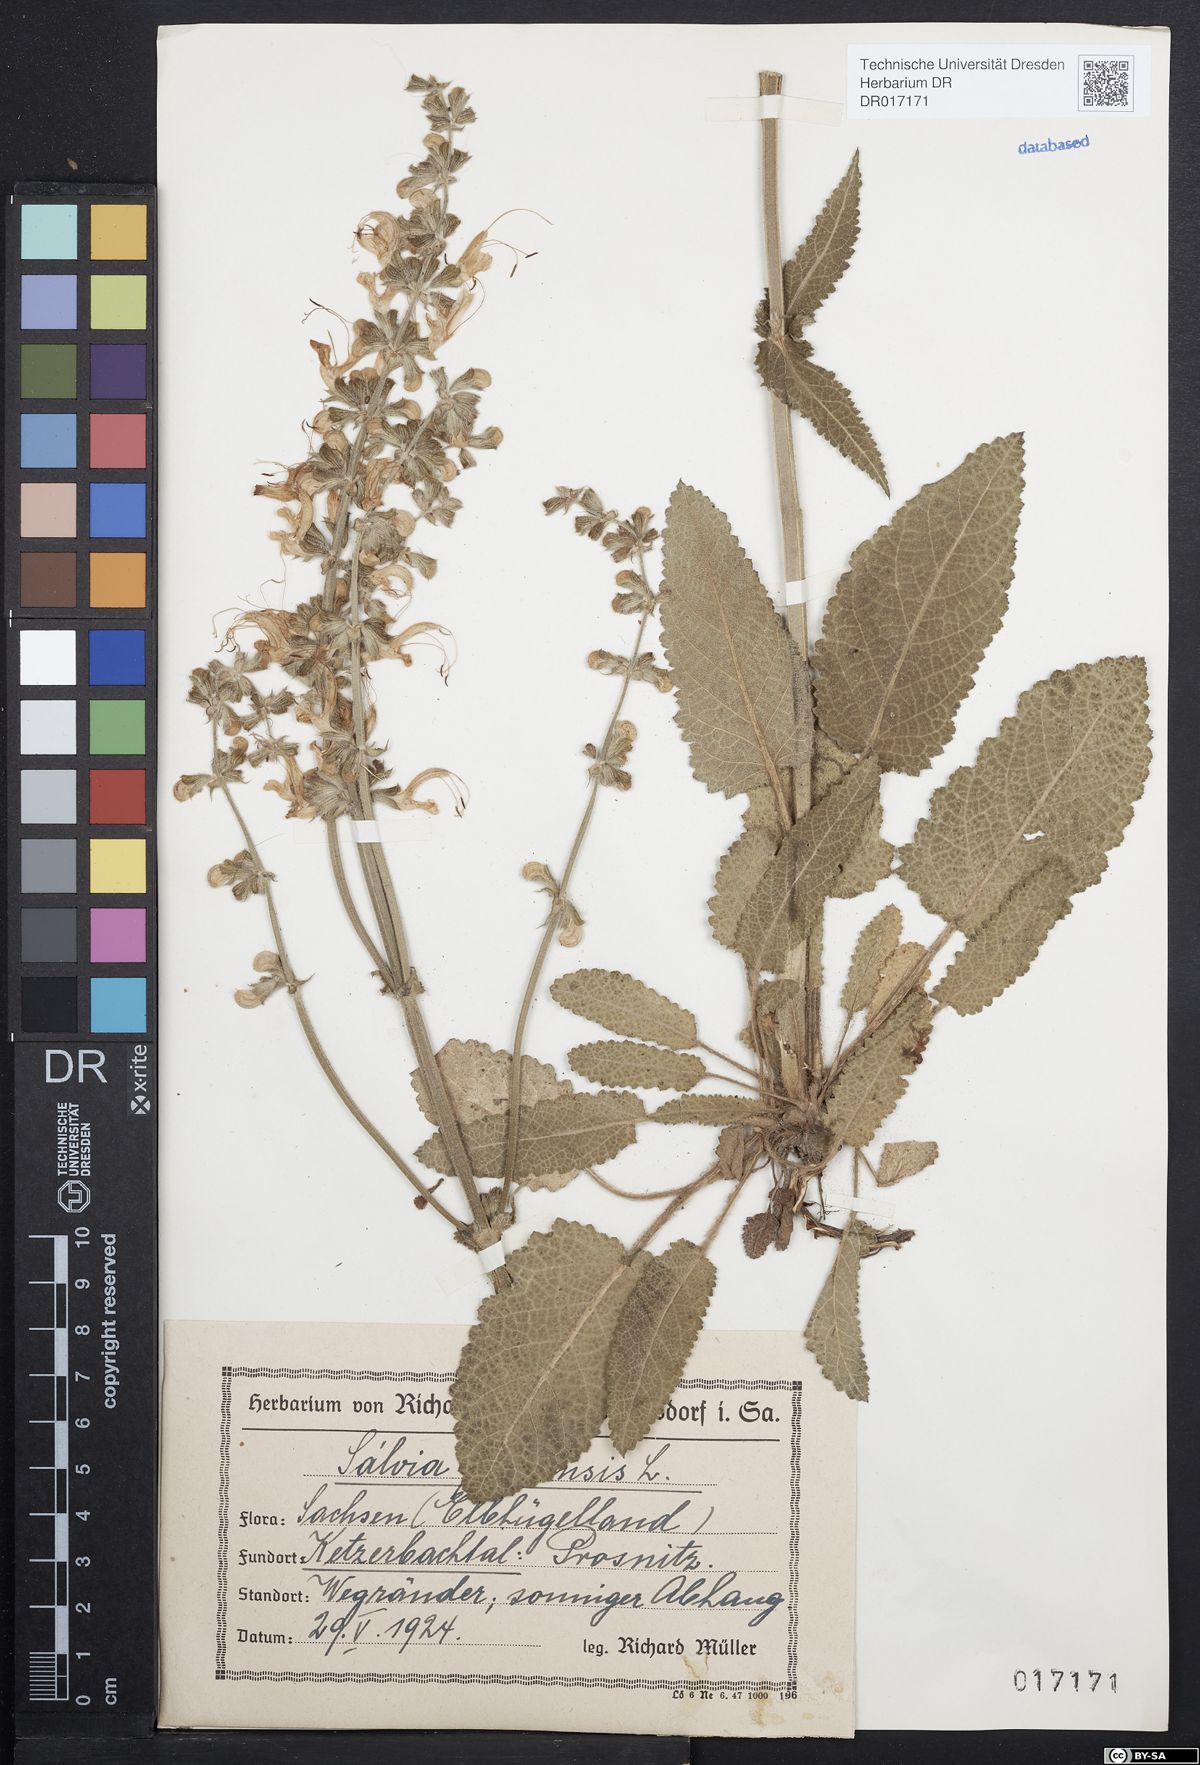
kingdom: Plantae
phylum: Tracheophyta
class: Magnoliopsida
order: Lamiales
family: Lamiaceae
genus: Salvia
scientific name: Salvia pratensis
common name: Meadow sage
